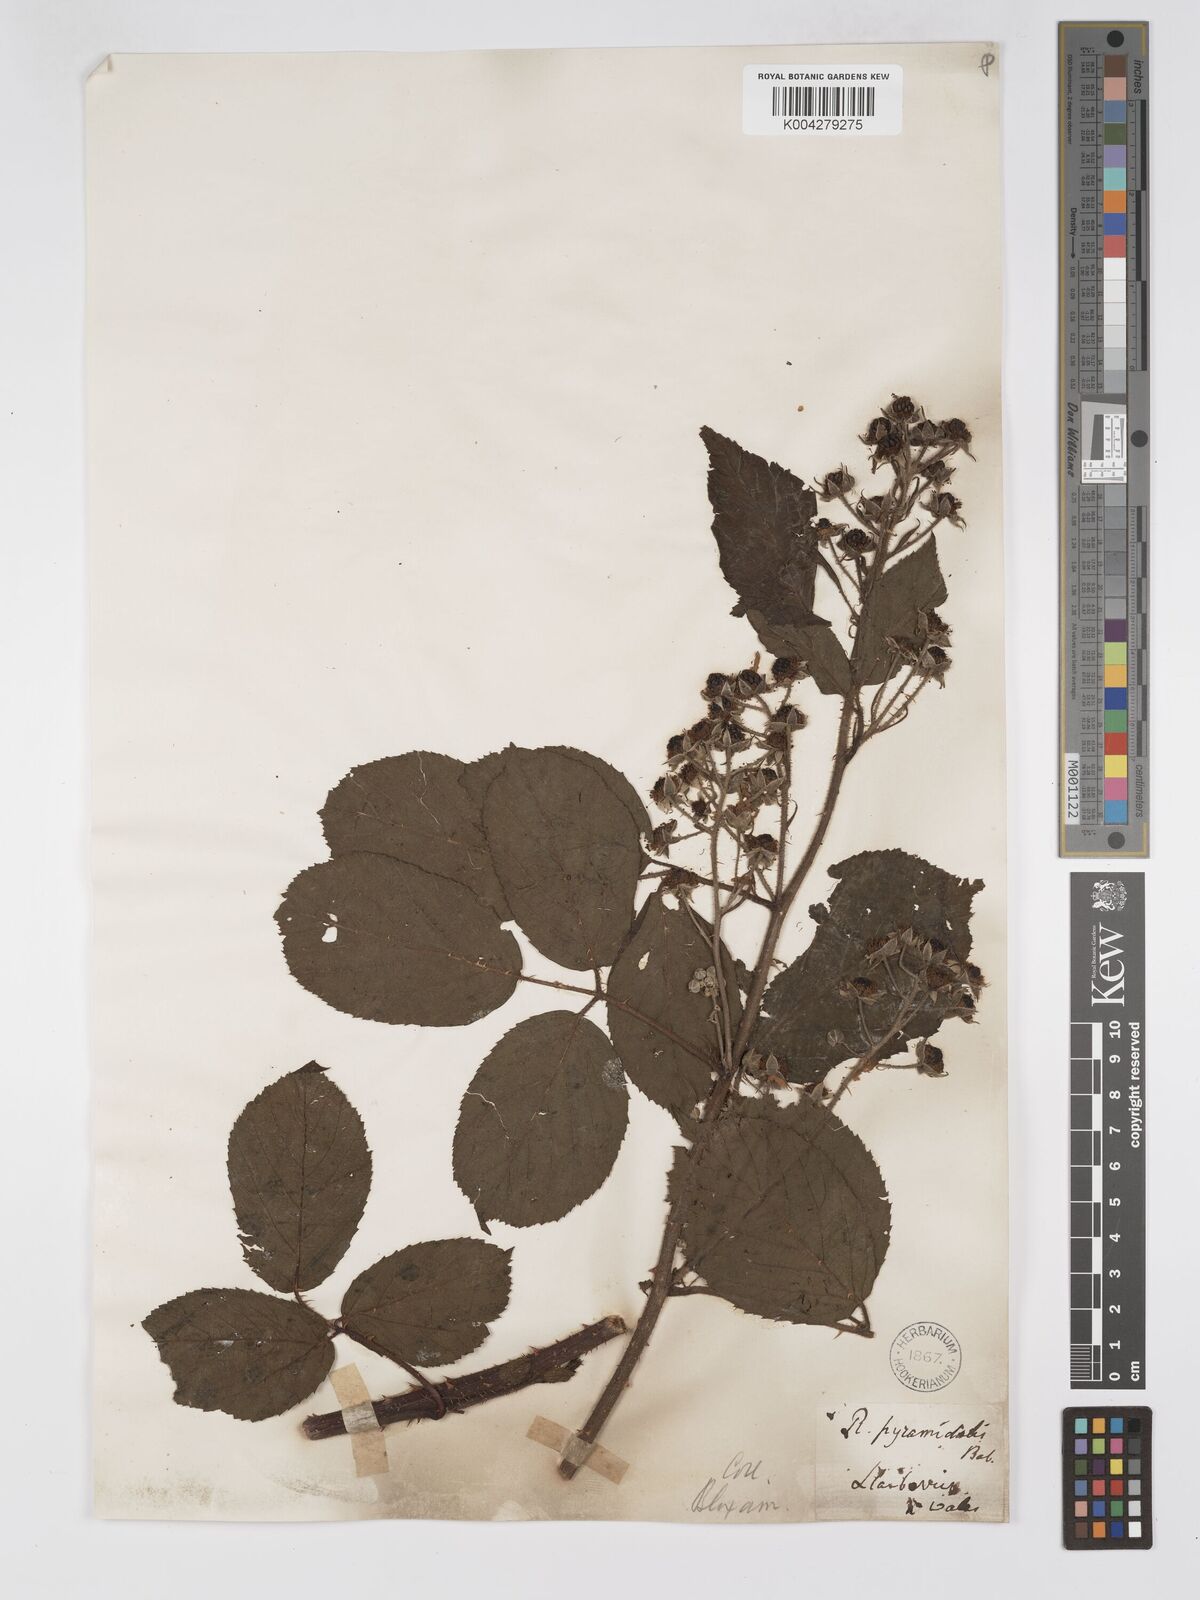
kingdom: Plantae
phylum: Tracheophyta
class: Magnoliopsida
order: Rosales
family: Rosaceae
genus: Rubus
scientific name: Rubus longithyrsiger
